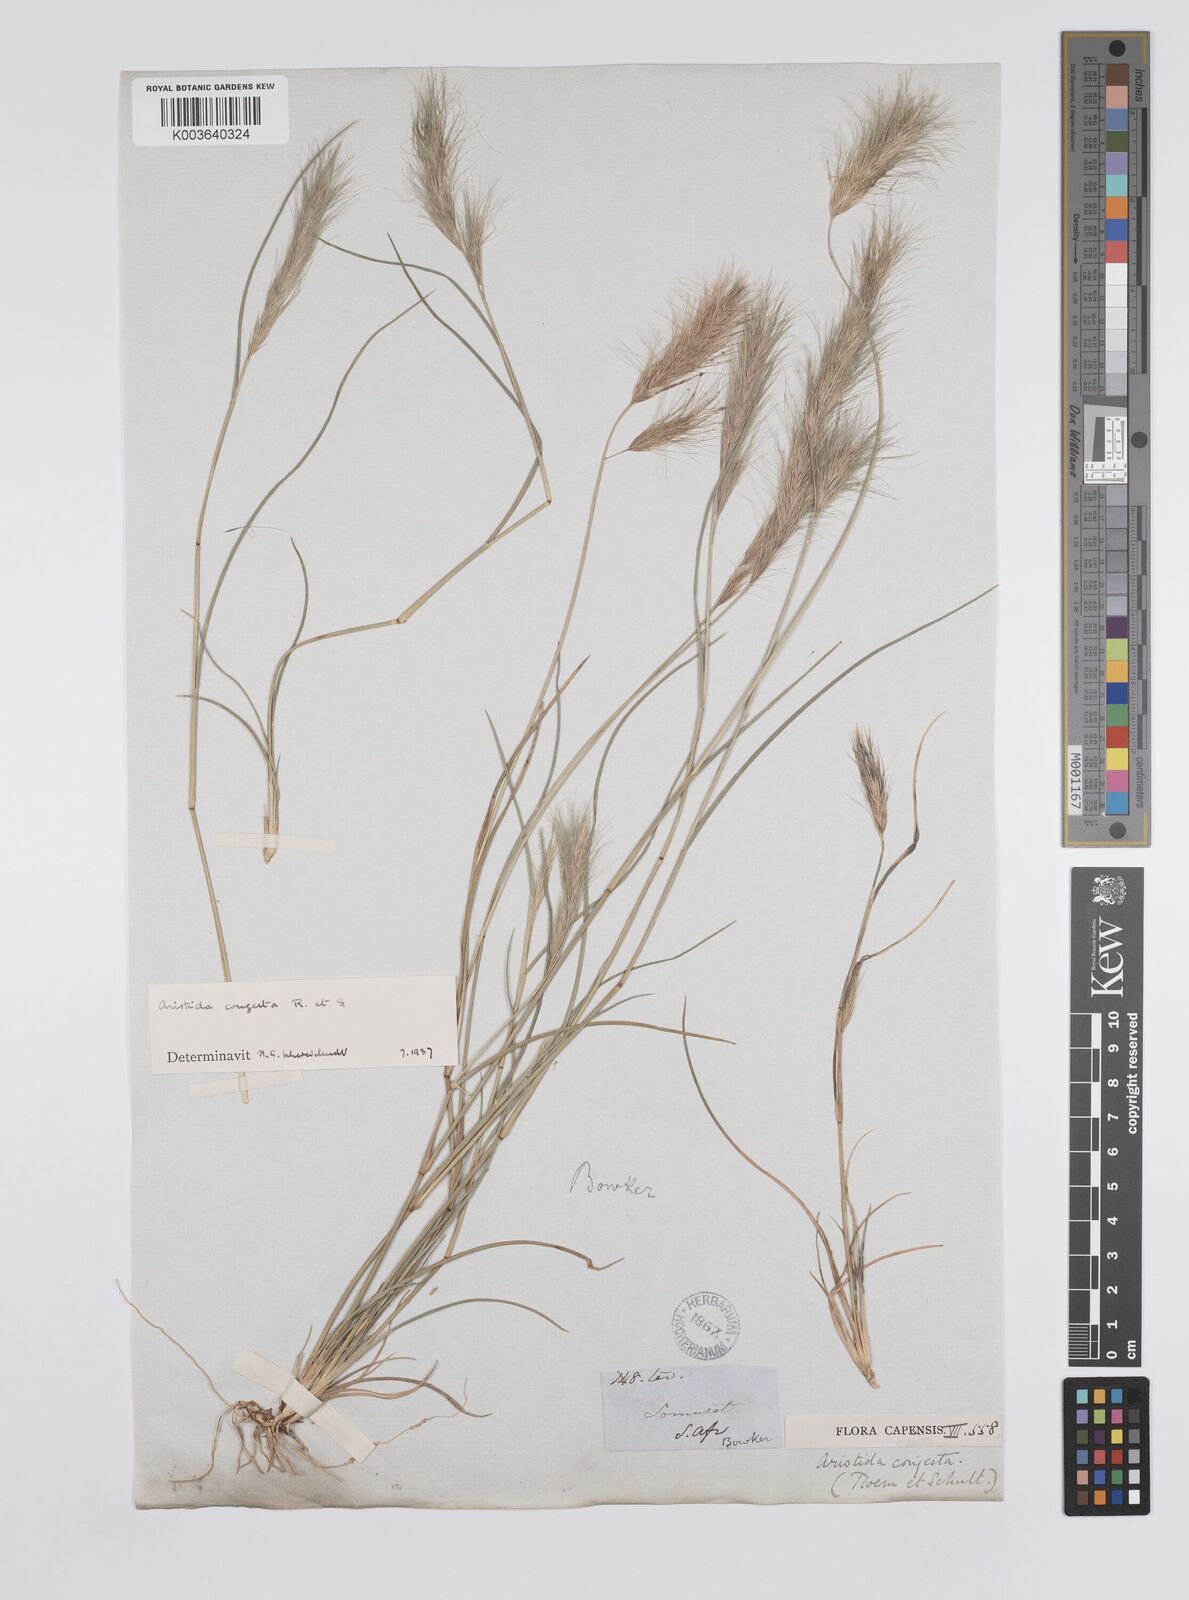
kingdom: Plantae
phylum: Tracheophyta
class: Liliopsida
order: Poales
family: Poaceae
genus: Aristida
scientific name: Aristida congesta
